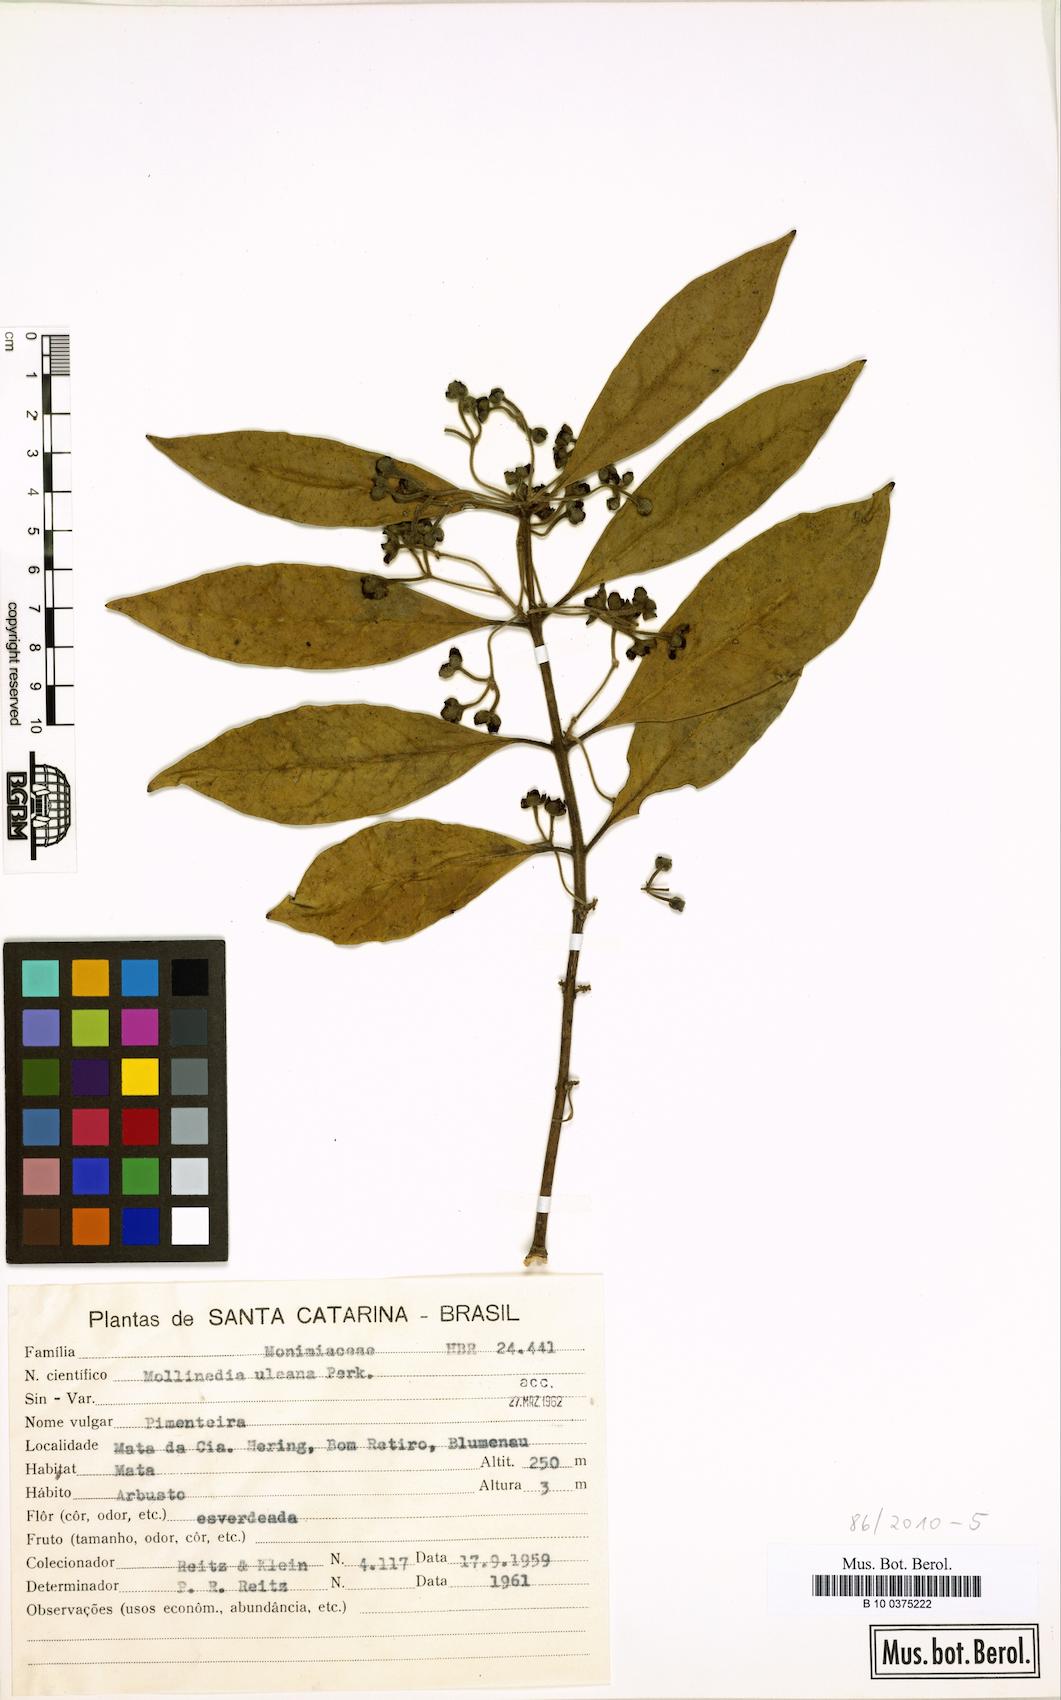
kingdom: Plantae
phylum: Tracheophyta
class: Magnoliopsida
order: Laurales
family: Monimiaceae
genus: Mollinedia
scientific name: Mollinedia uleana
